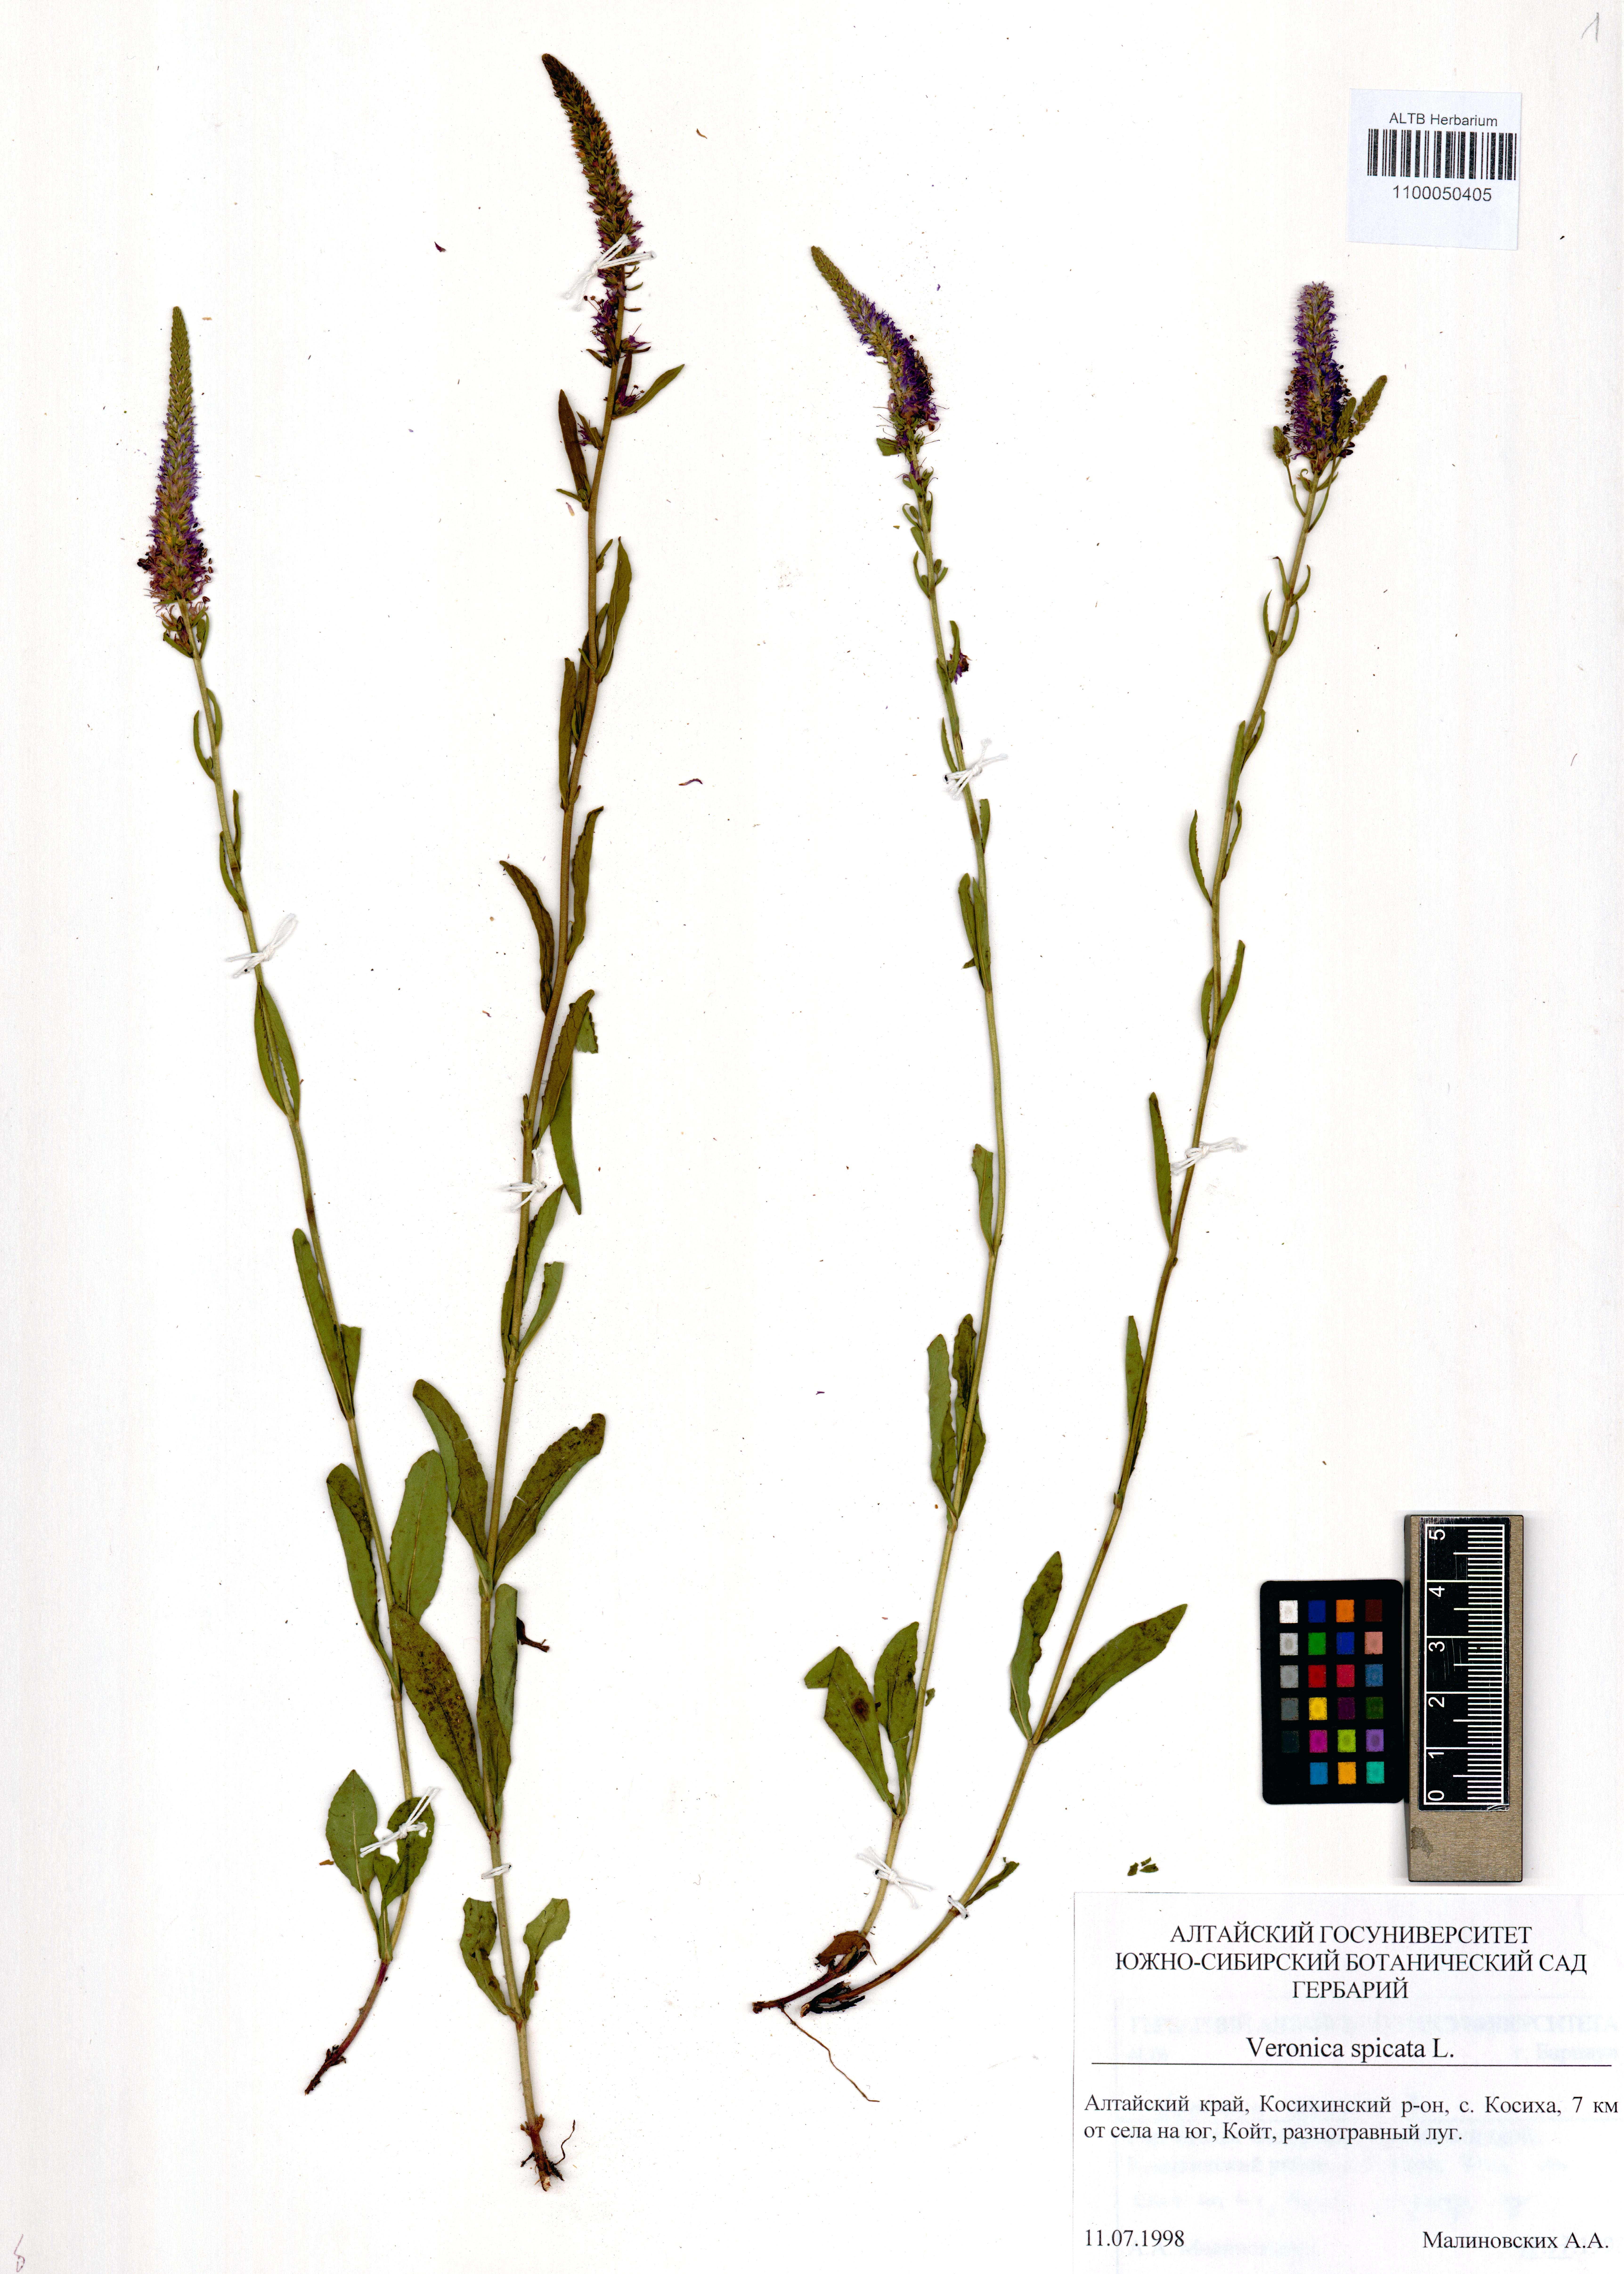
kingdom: Plantae
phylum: Tracheophyta
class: Magnoliopsida
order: Lamiales
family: Plantaginaceae
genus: Veronica
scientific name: Veronica spicata
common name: Spiked speedwell
